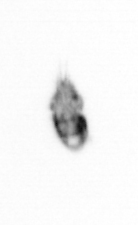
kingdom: Animalia
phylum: Arthropoda
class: Copepoda
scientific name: Copepoda
